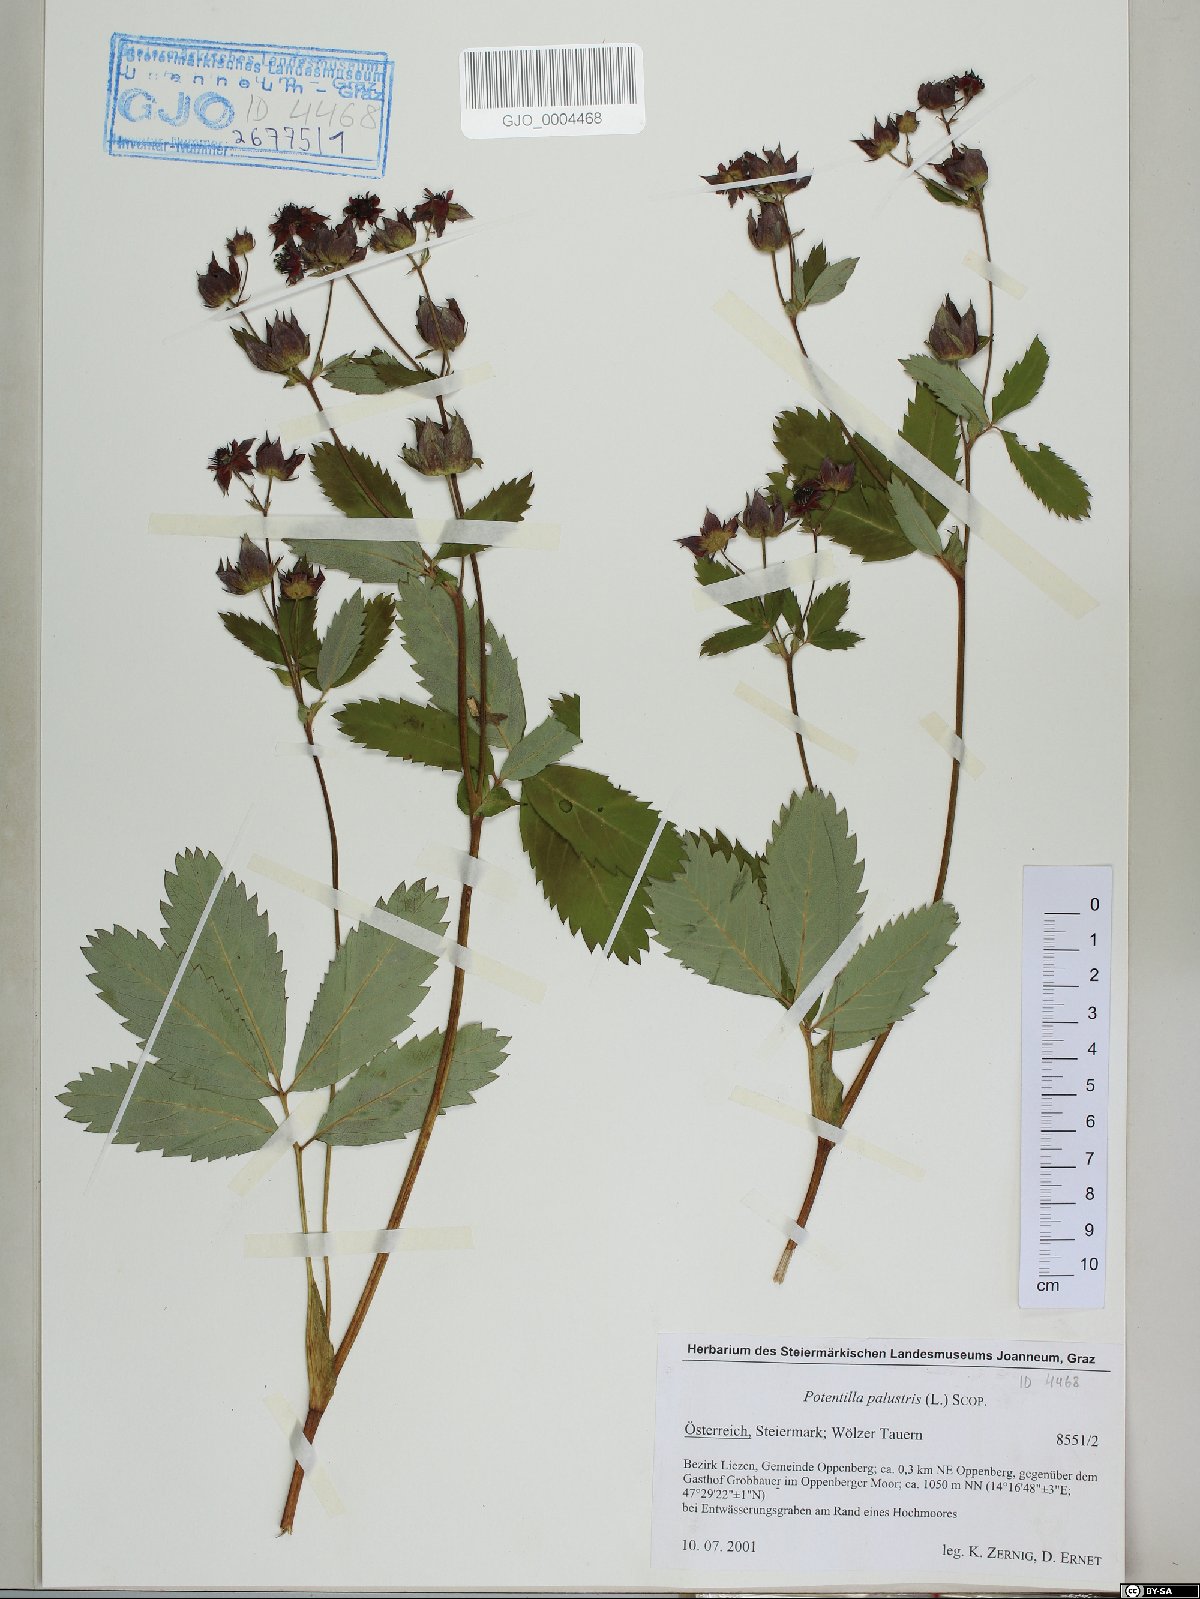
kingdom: Plantae
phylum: Tracheophyta
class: Magnoliopsida
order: Rosales
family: Rosaceae
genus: Comarum
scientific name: Comarum palustre
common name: Marsh cinquefoil
